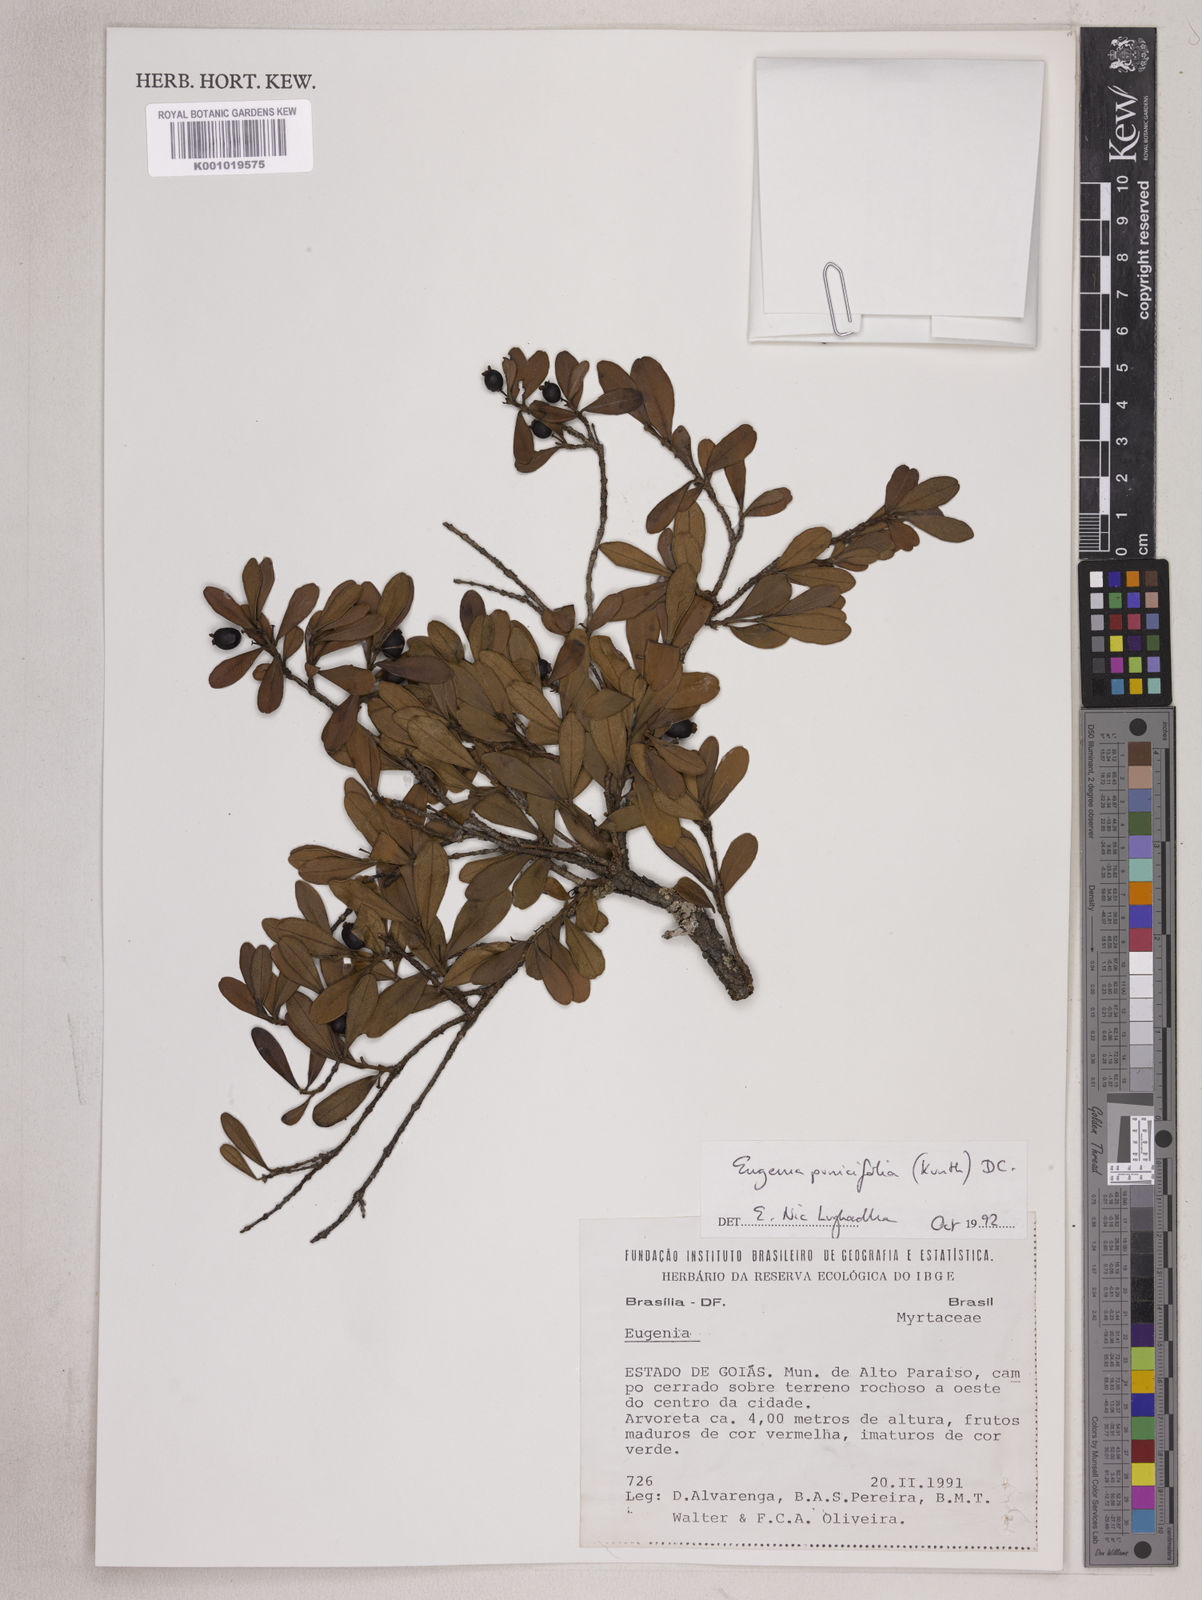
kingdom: Plantae
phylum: Tracheophyta
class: Magnoliopsida
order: Myrtales
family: Myrtaceae
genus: Eugenia
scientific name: Eugenia punicifolia
